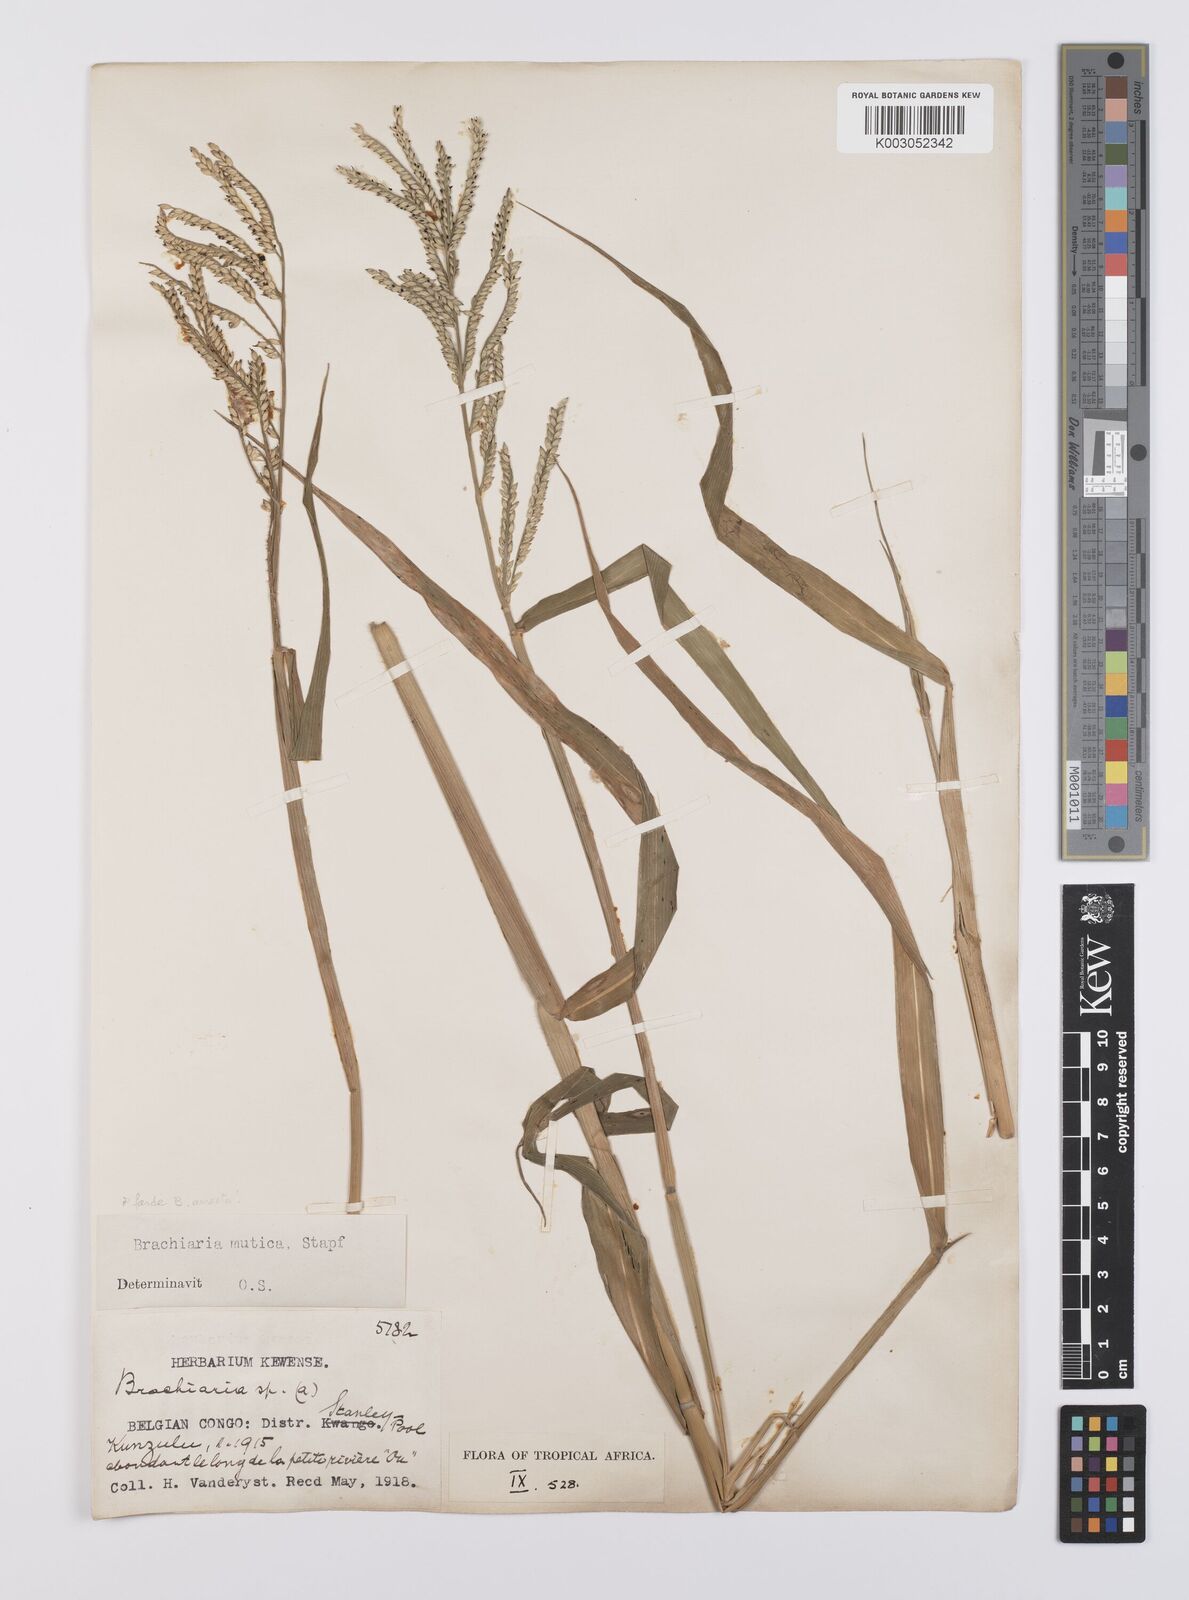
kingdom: Plantae
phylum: Tracheophyta
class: Liliopsida
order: Poales
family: Poaceae
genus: Urochloa
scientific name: Urochloa arrecta
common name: African signalgrass
